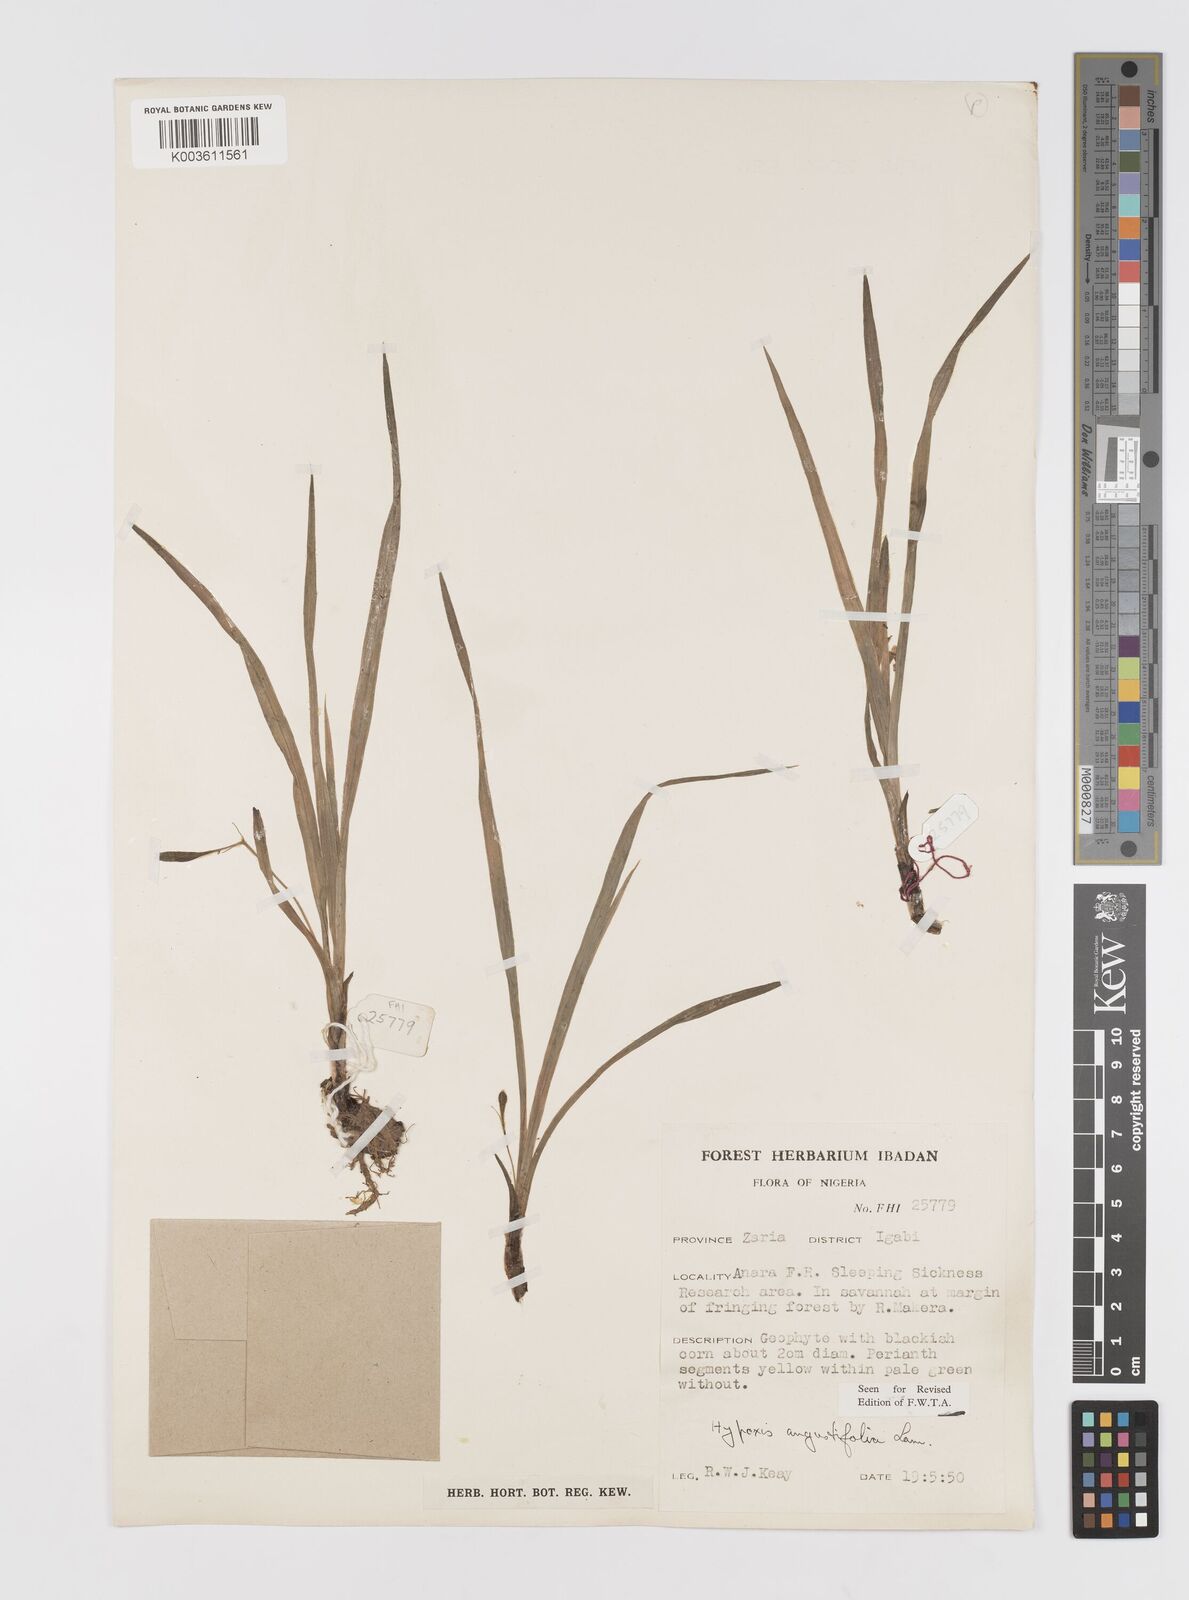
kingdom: Plantae
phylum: Tracheophyta
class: Liliopsida
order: Asparagales
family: Hypoxidaceae
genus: Hypoxis
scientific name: Hypoxis angustifolia
